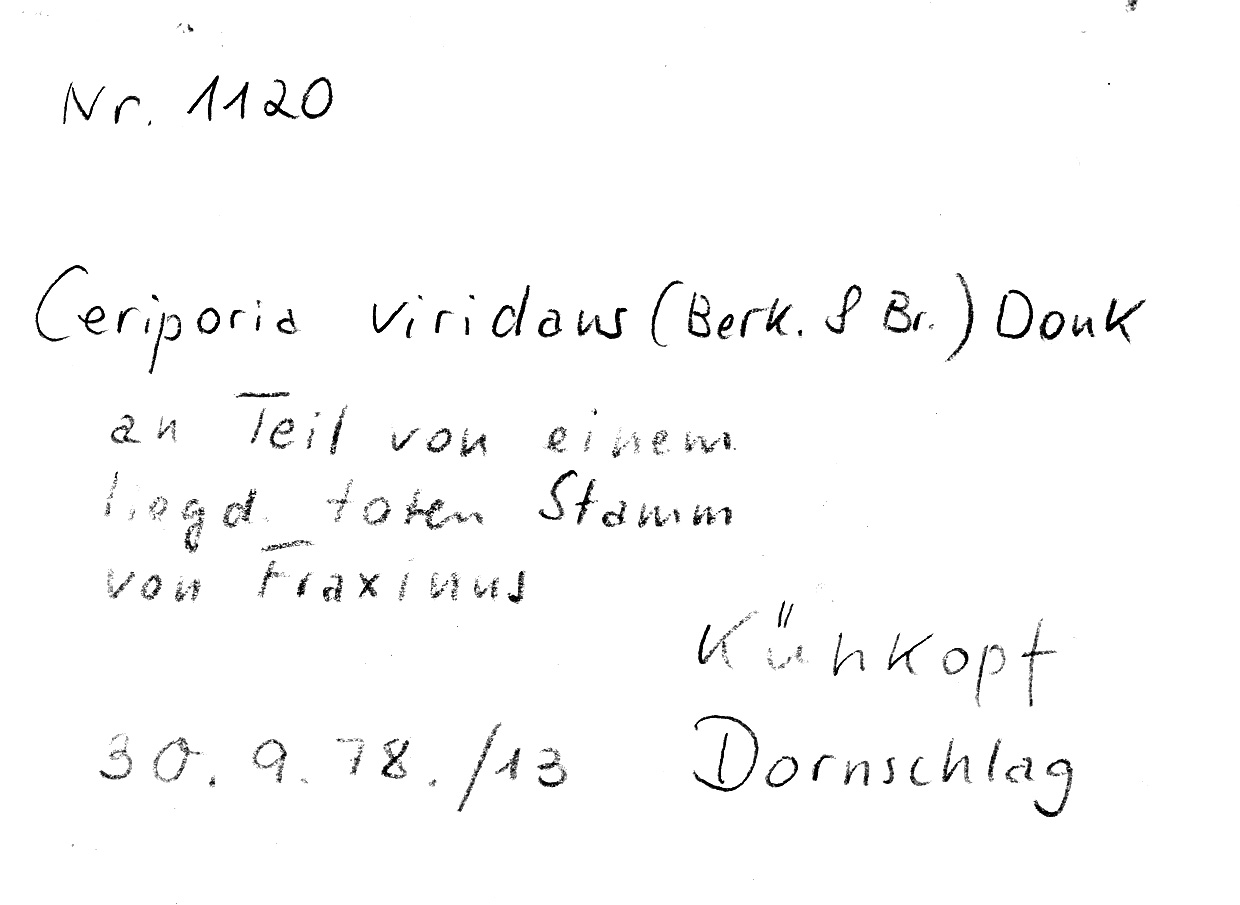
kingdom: Fungi
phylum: Basidiomycota
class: Agaricomycetes
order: Polyporales
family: Irpicaceae
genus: Ceriporia
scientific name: Ceriporia viridans
